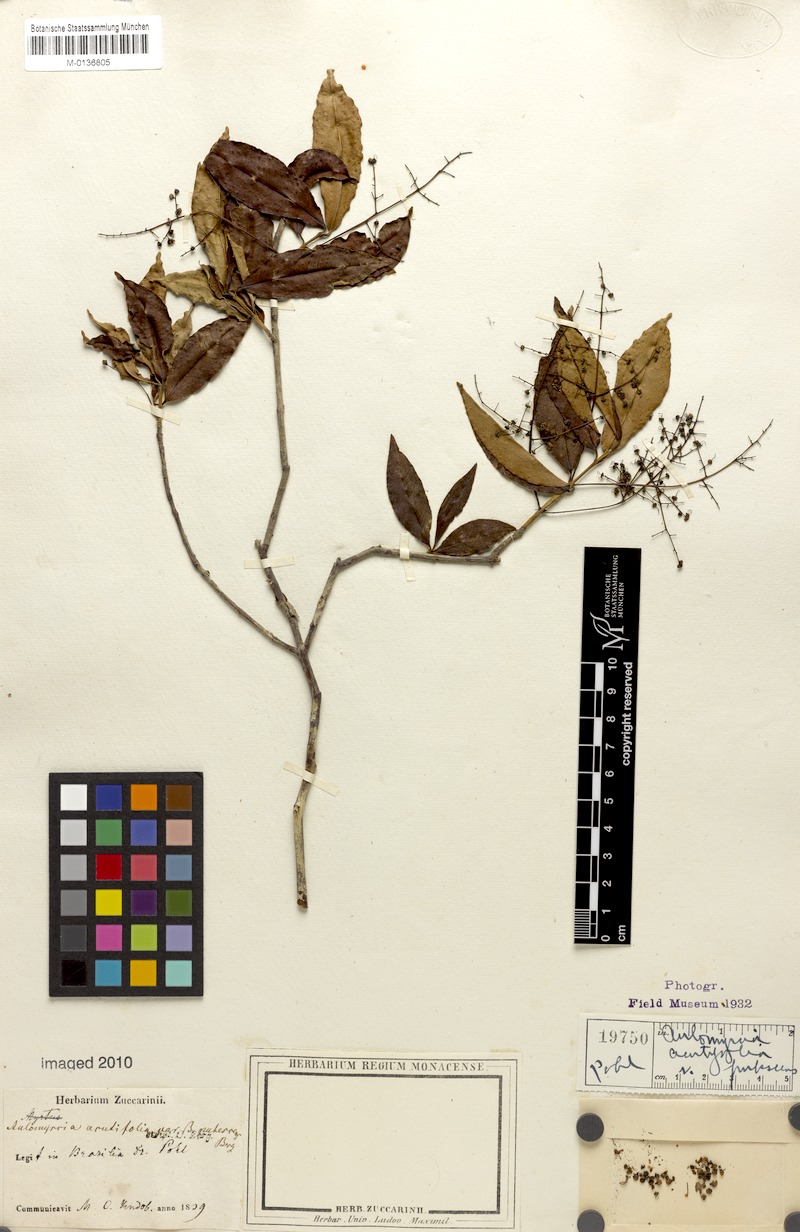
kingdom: Plantae
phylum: Tracheophyta
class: Magnoliopsida
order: Myrtales
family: Myrtaceae
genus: Myrcia
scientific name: Myrcia selloi
